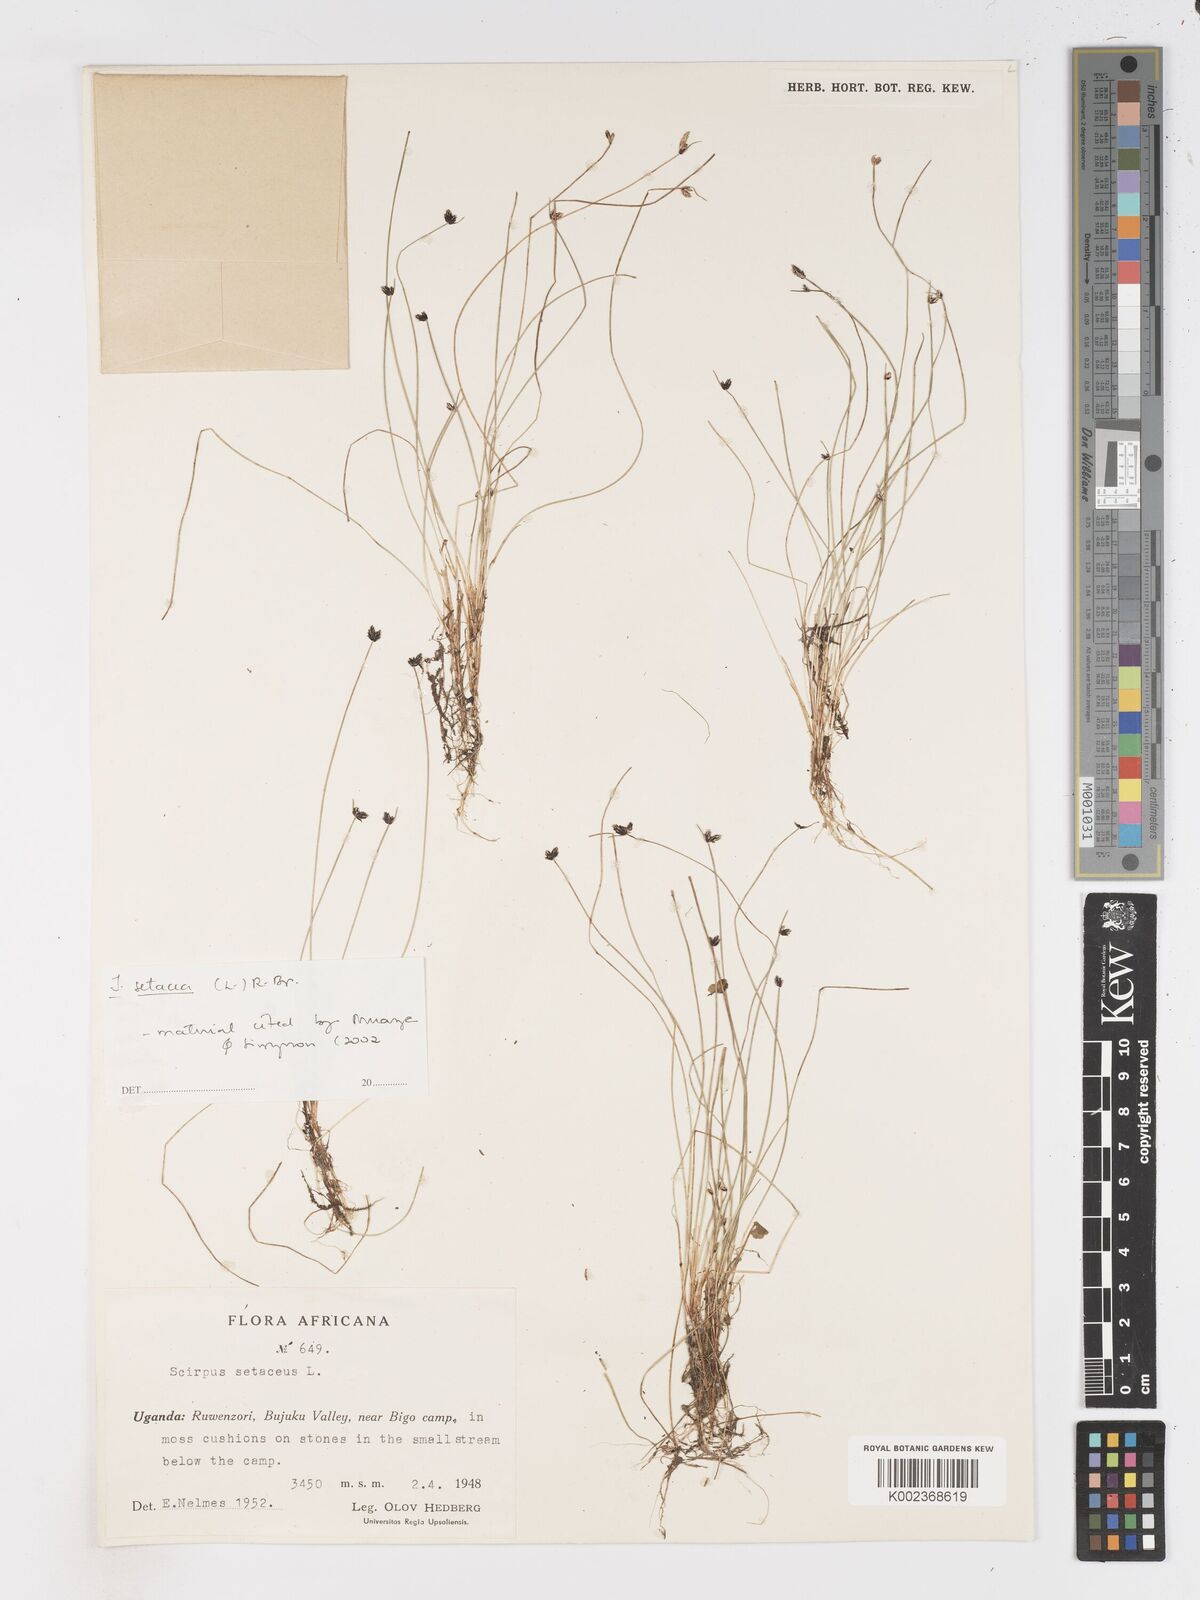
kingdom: Plantae
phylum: Tracheophyta
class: Liliopsida
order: Poales
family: Cyperaceae
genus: Isolepis
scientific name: Isolepis setacea
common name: Bristle club-rush
